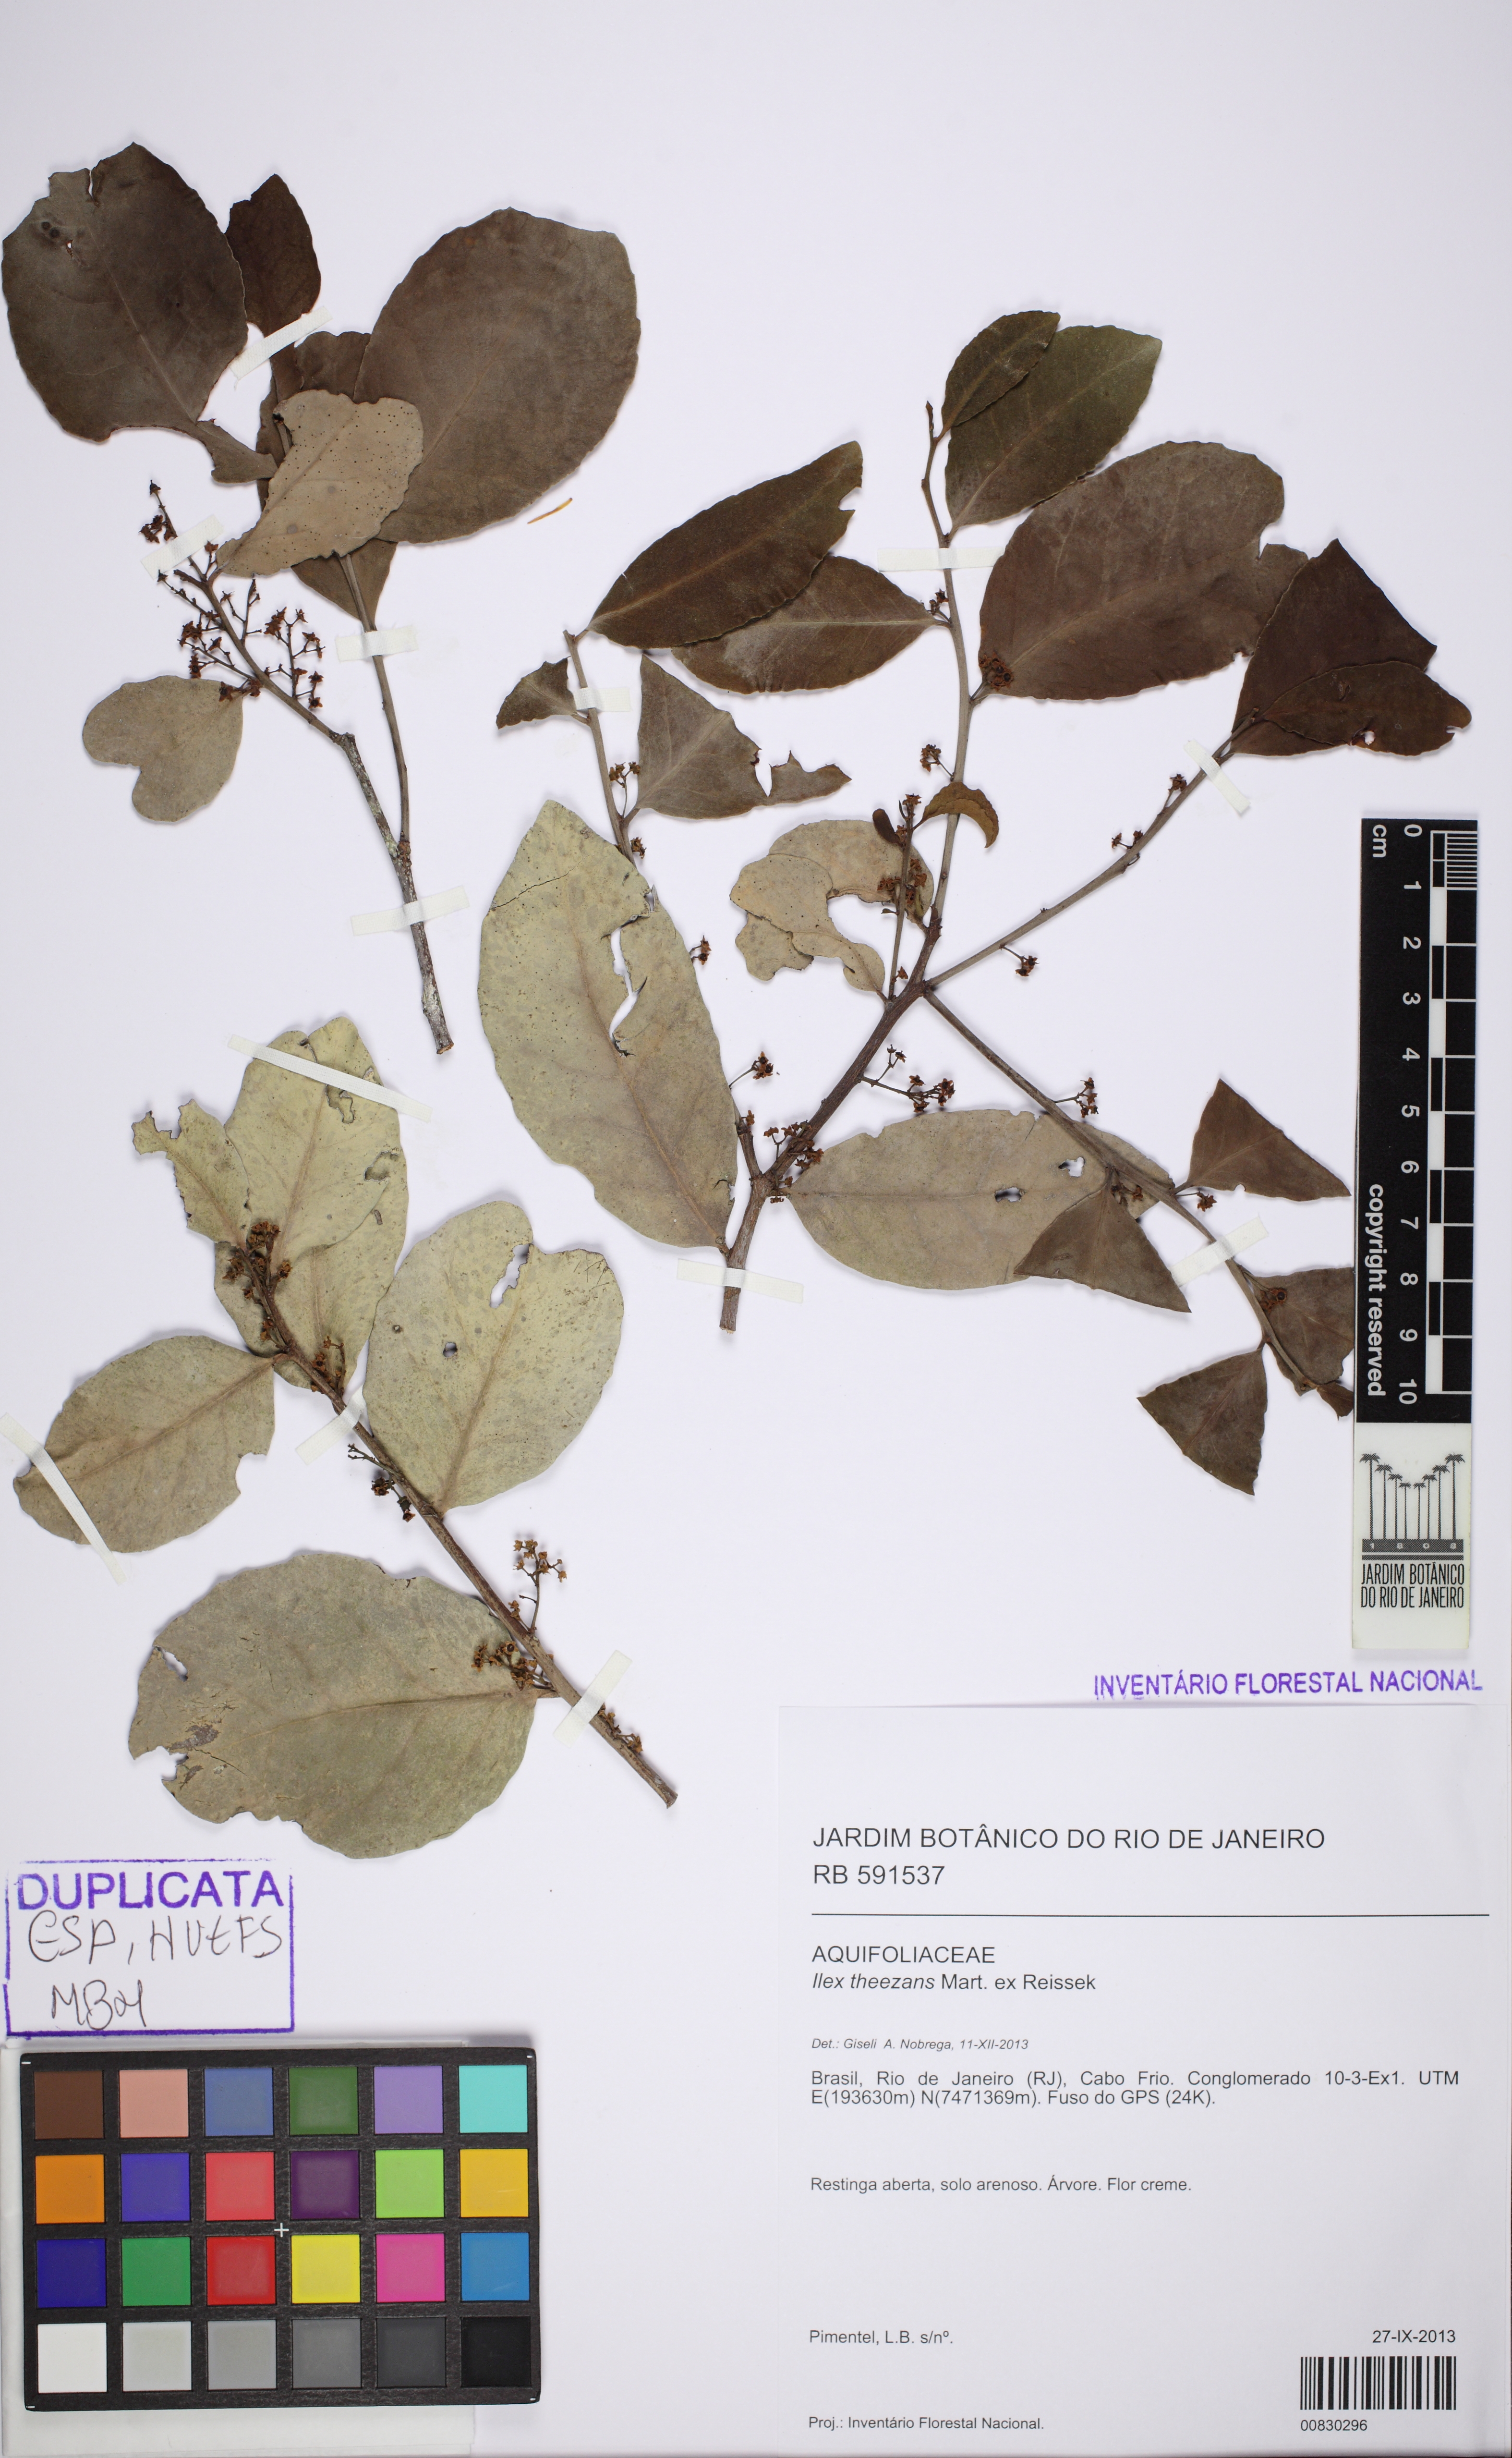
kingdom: Plantae
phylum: Tracheophyta
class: Magnoliopsida
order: Celastrales
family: Celastraceae
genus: Monteverdia
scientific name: Monteverdia obtusifolia
